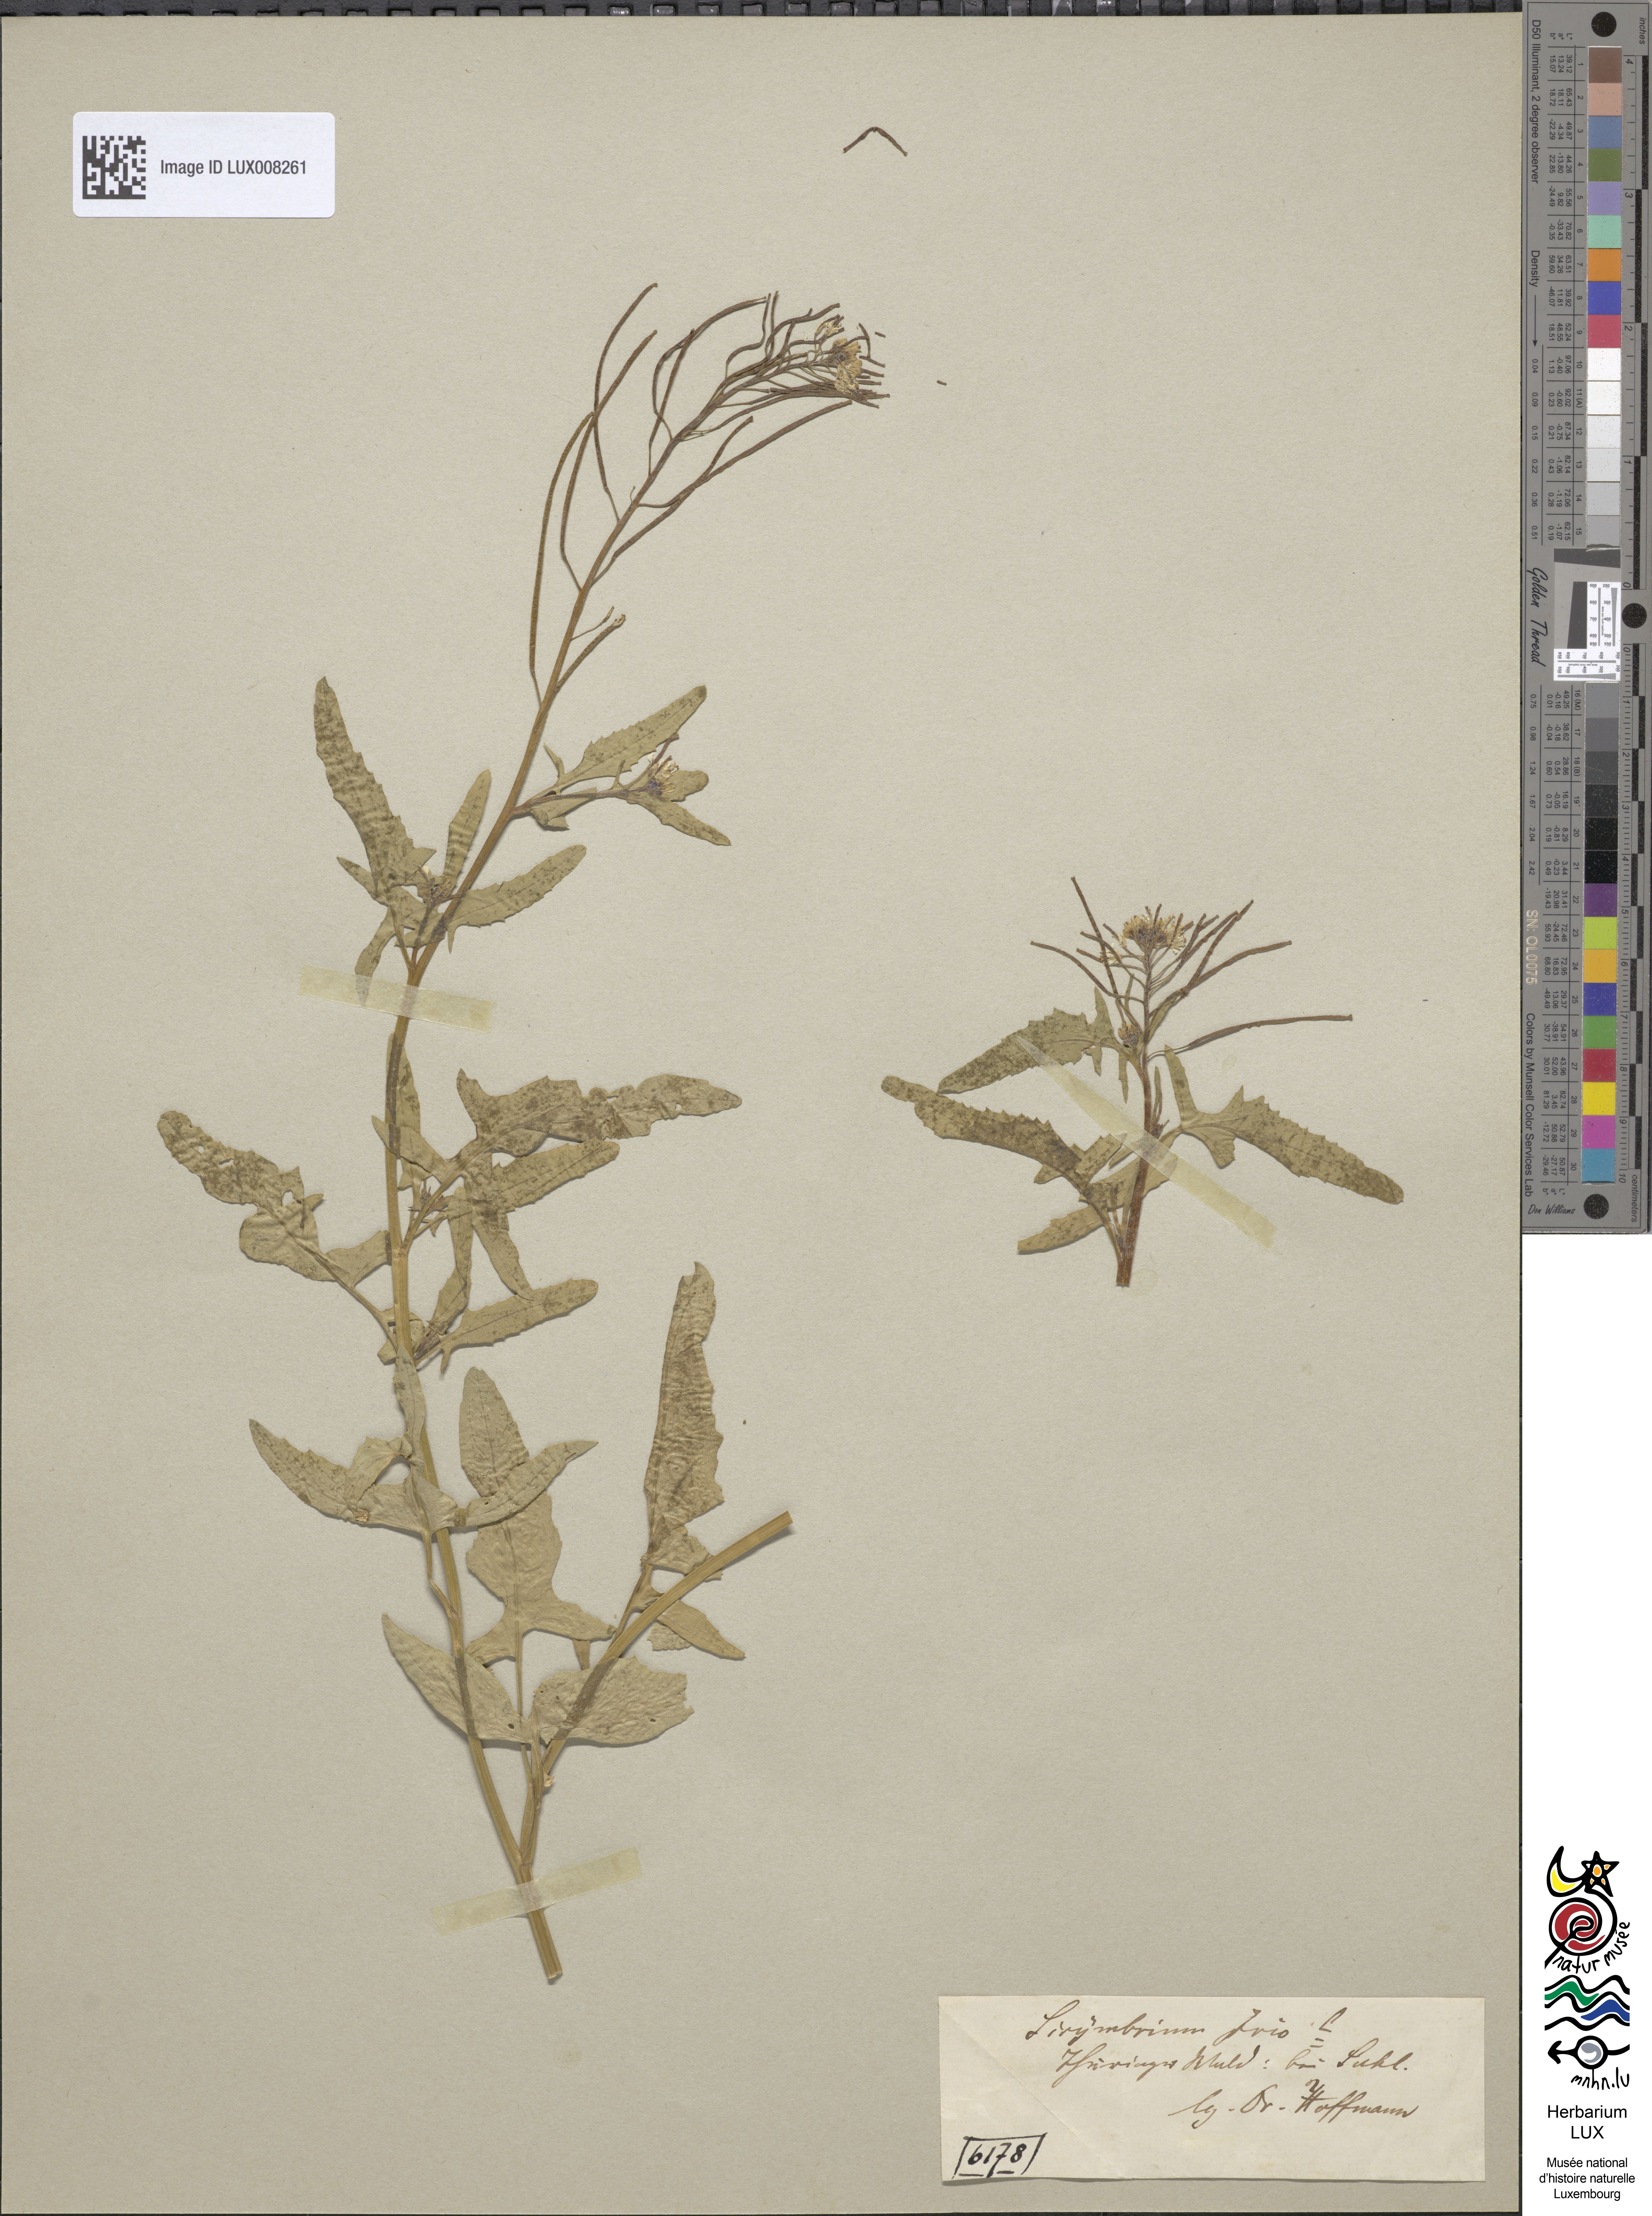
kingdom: Plantae
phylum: Tracheophyta
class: Magnoliopsida
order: Brassicales
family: Brassicaceae
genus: Sisymbrium
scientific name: Sisymbrium irio
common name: London rocket
